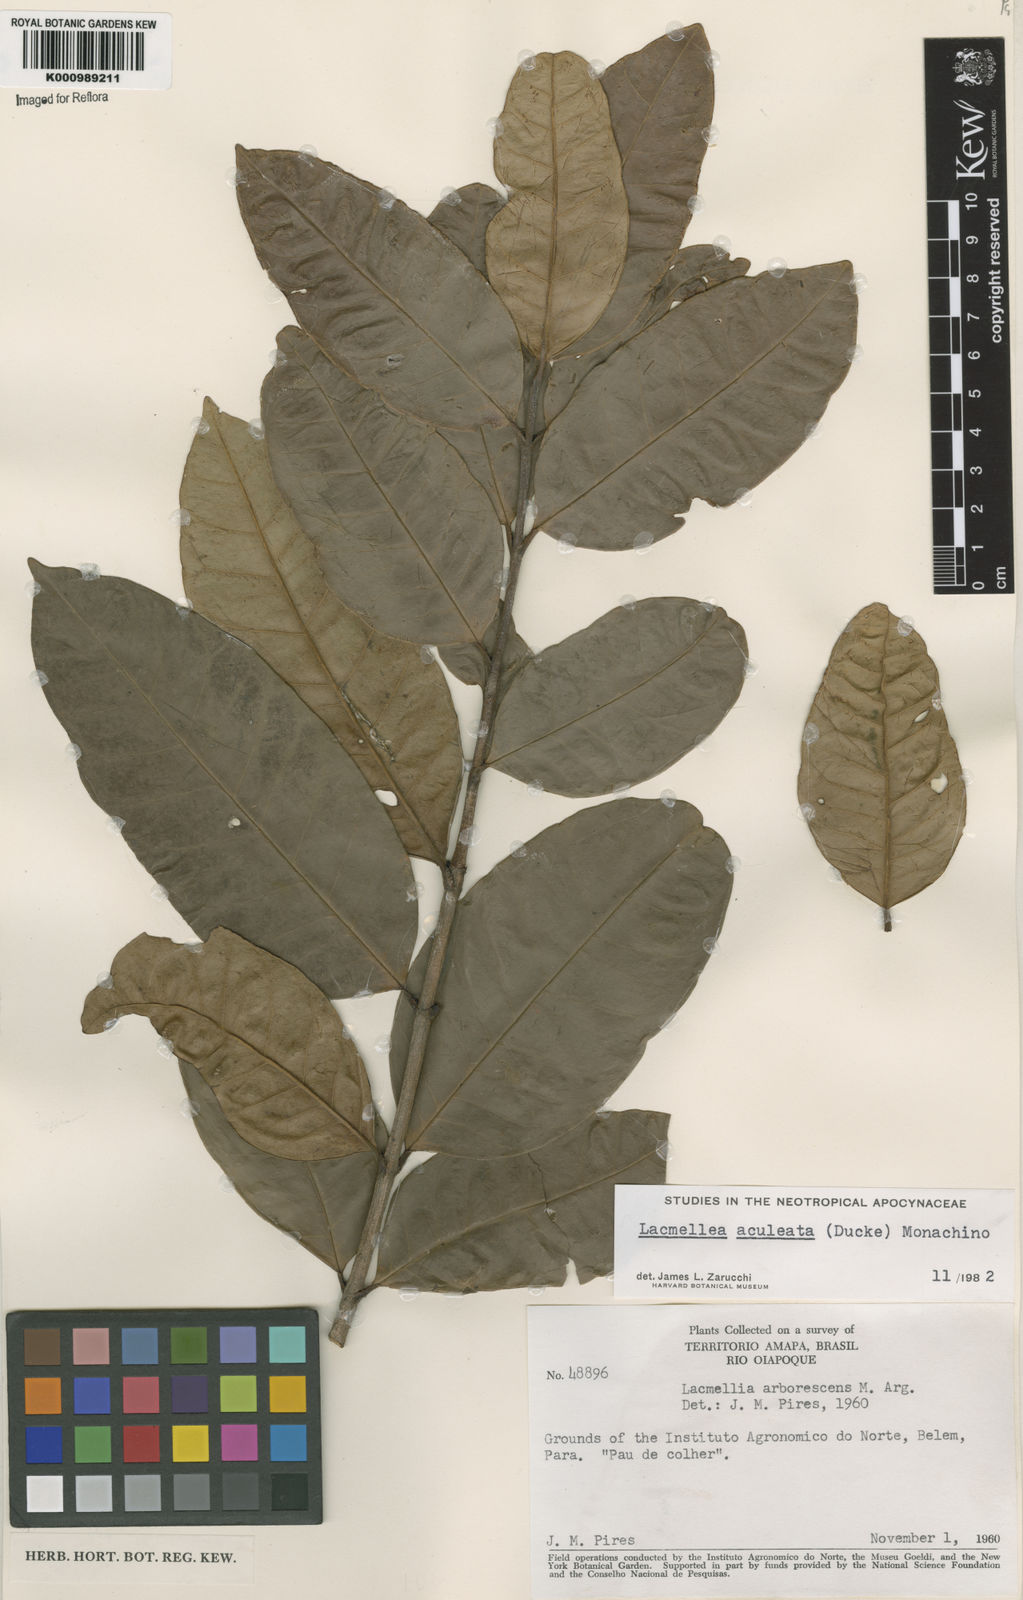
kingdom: Plantae
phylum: Tracheophyta
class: Magnoliopsida
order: Gentianales
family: Apocynaceae
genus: Lacmellea
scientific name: Lacmellea aculeata
